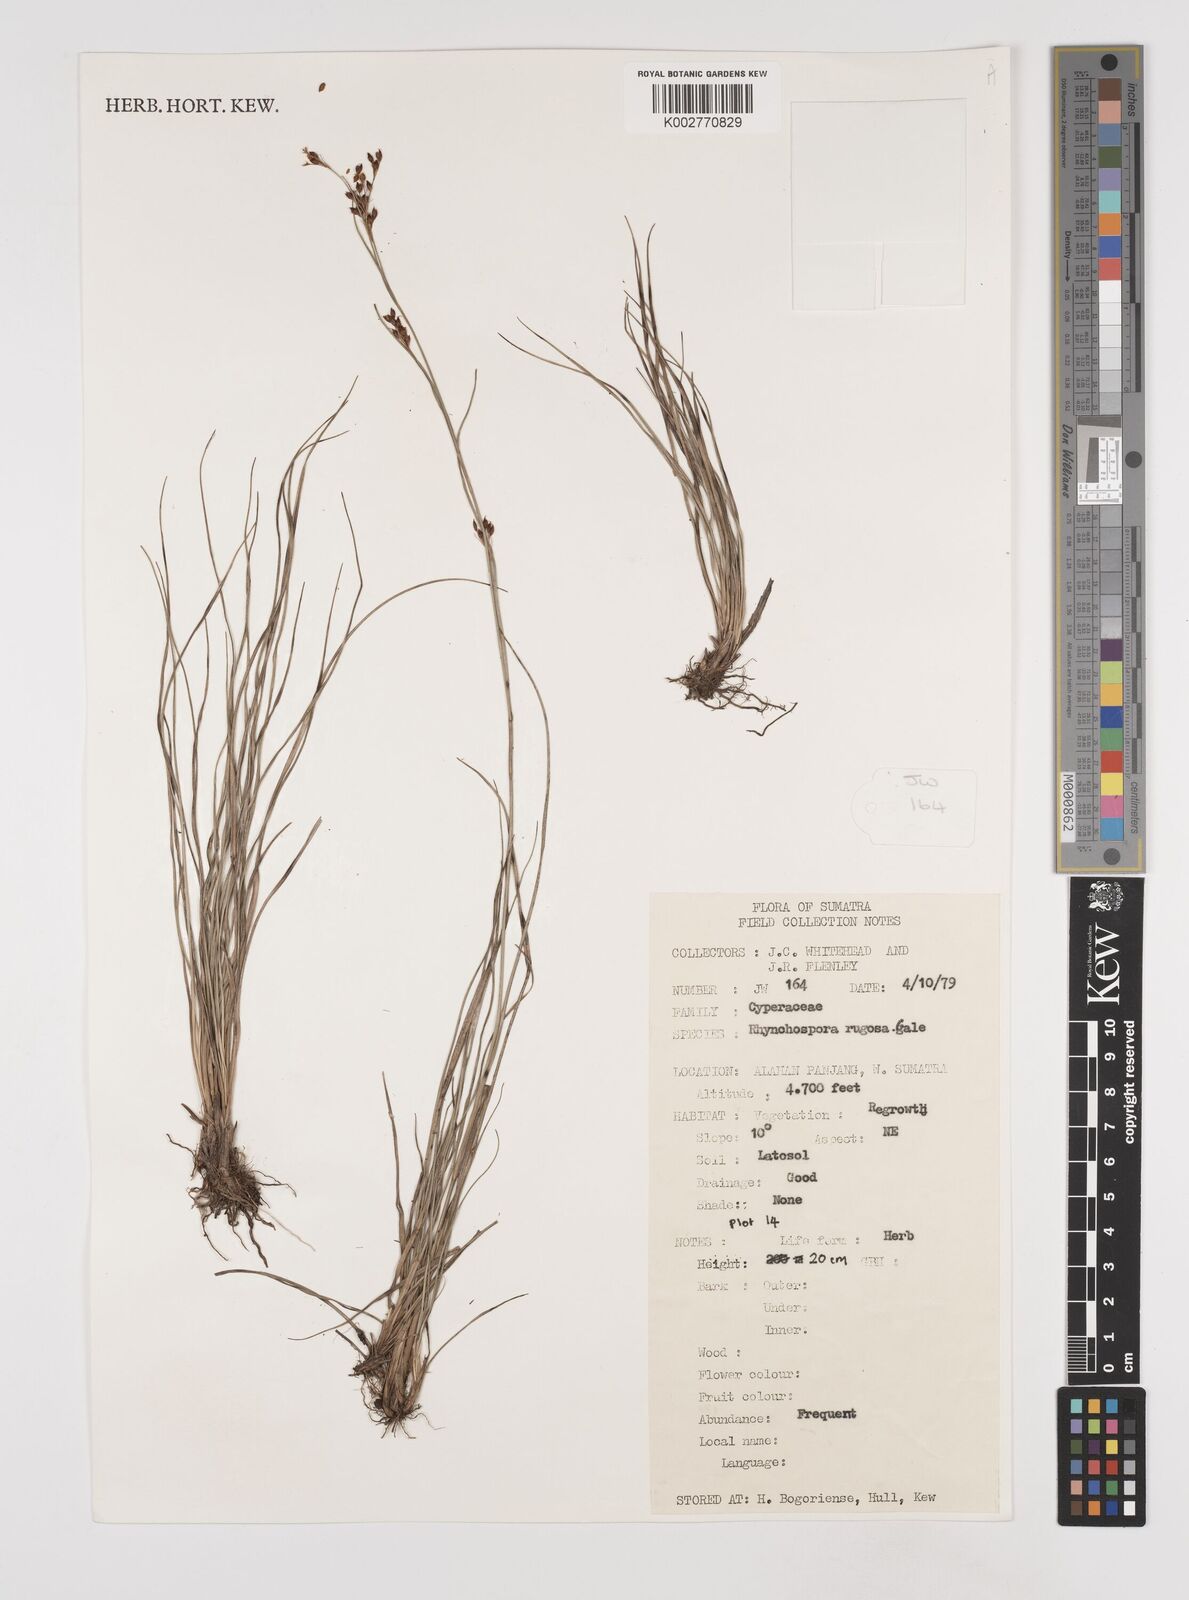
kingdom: Plantae
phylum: Tracheophyta
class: Liliopsida
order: Poales
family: Cyperaceae
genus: Rhynchospora
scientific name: Rhynchospora rugosa
